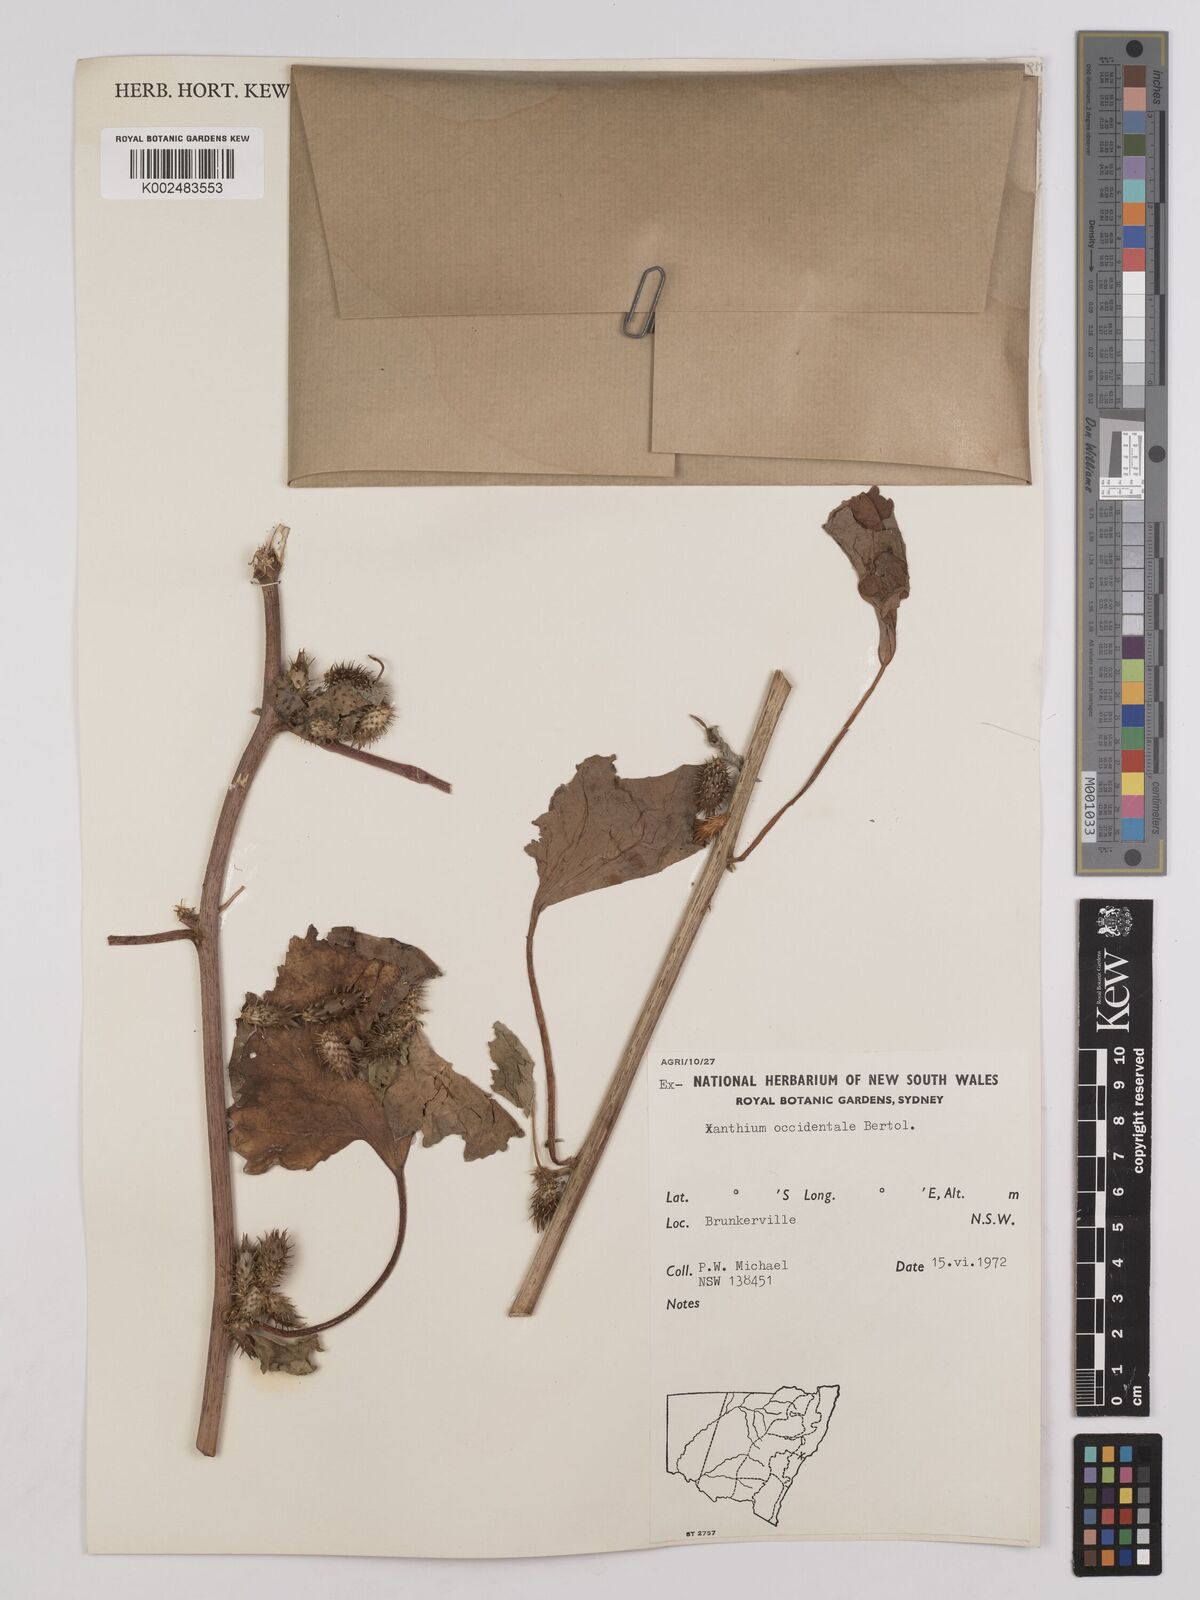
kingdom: Plantae
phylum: Tracheophyta
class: Magnoliopsida
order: Asterales
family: Asteraceae
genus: Xanthium
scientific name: Xanthium occidentale
